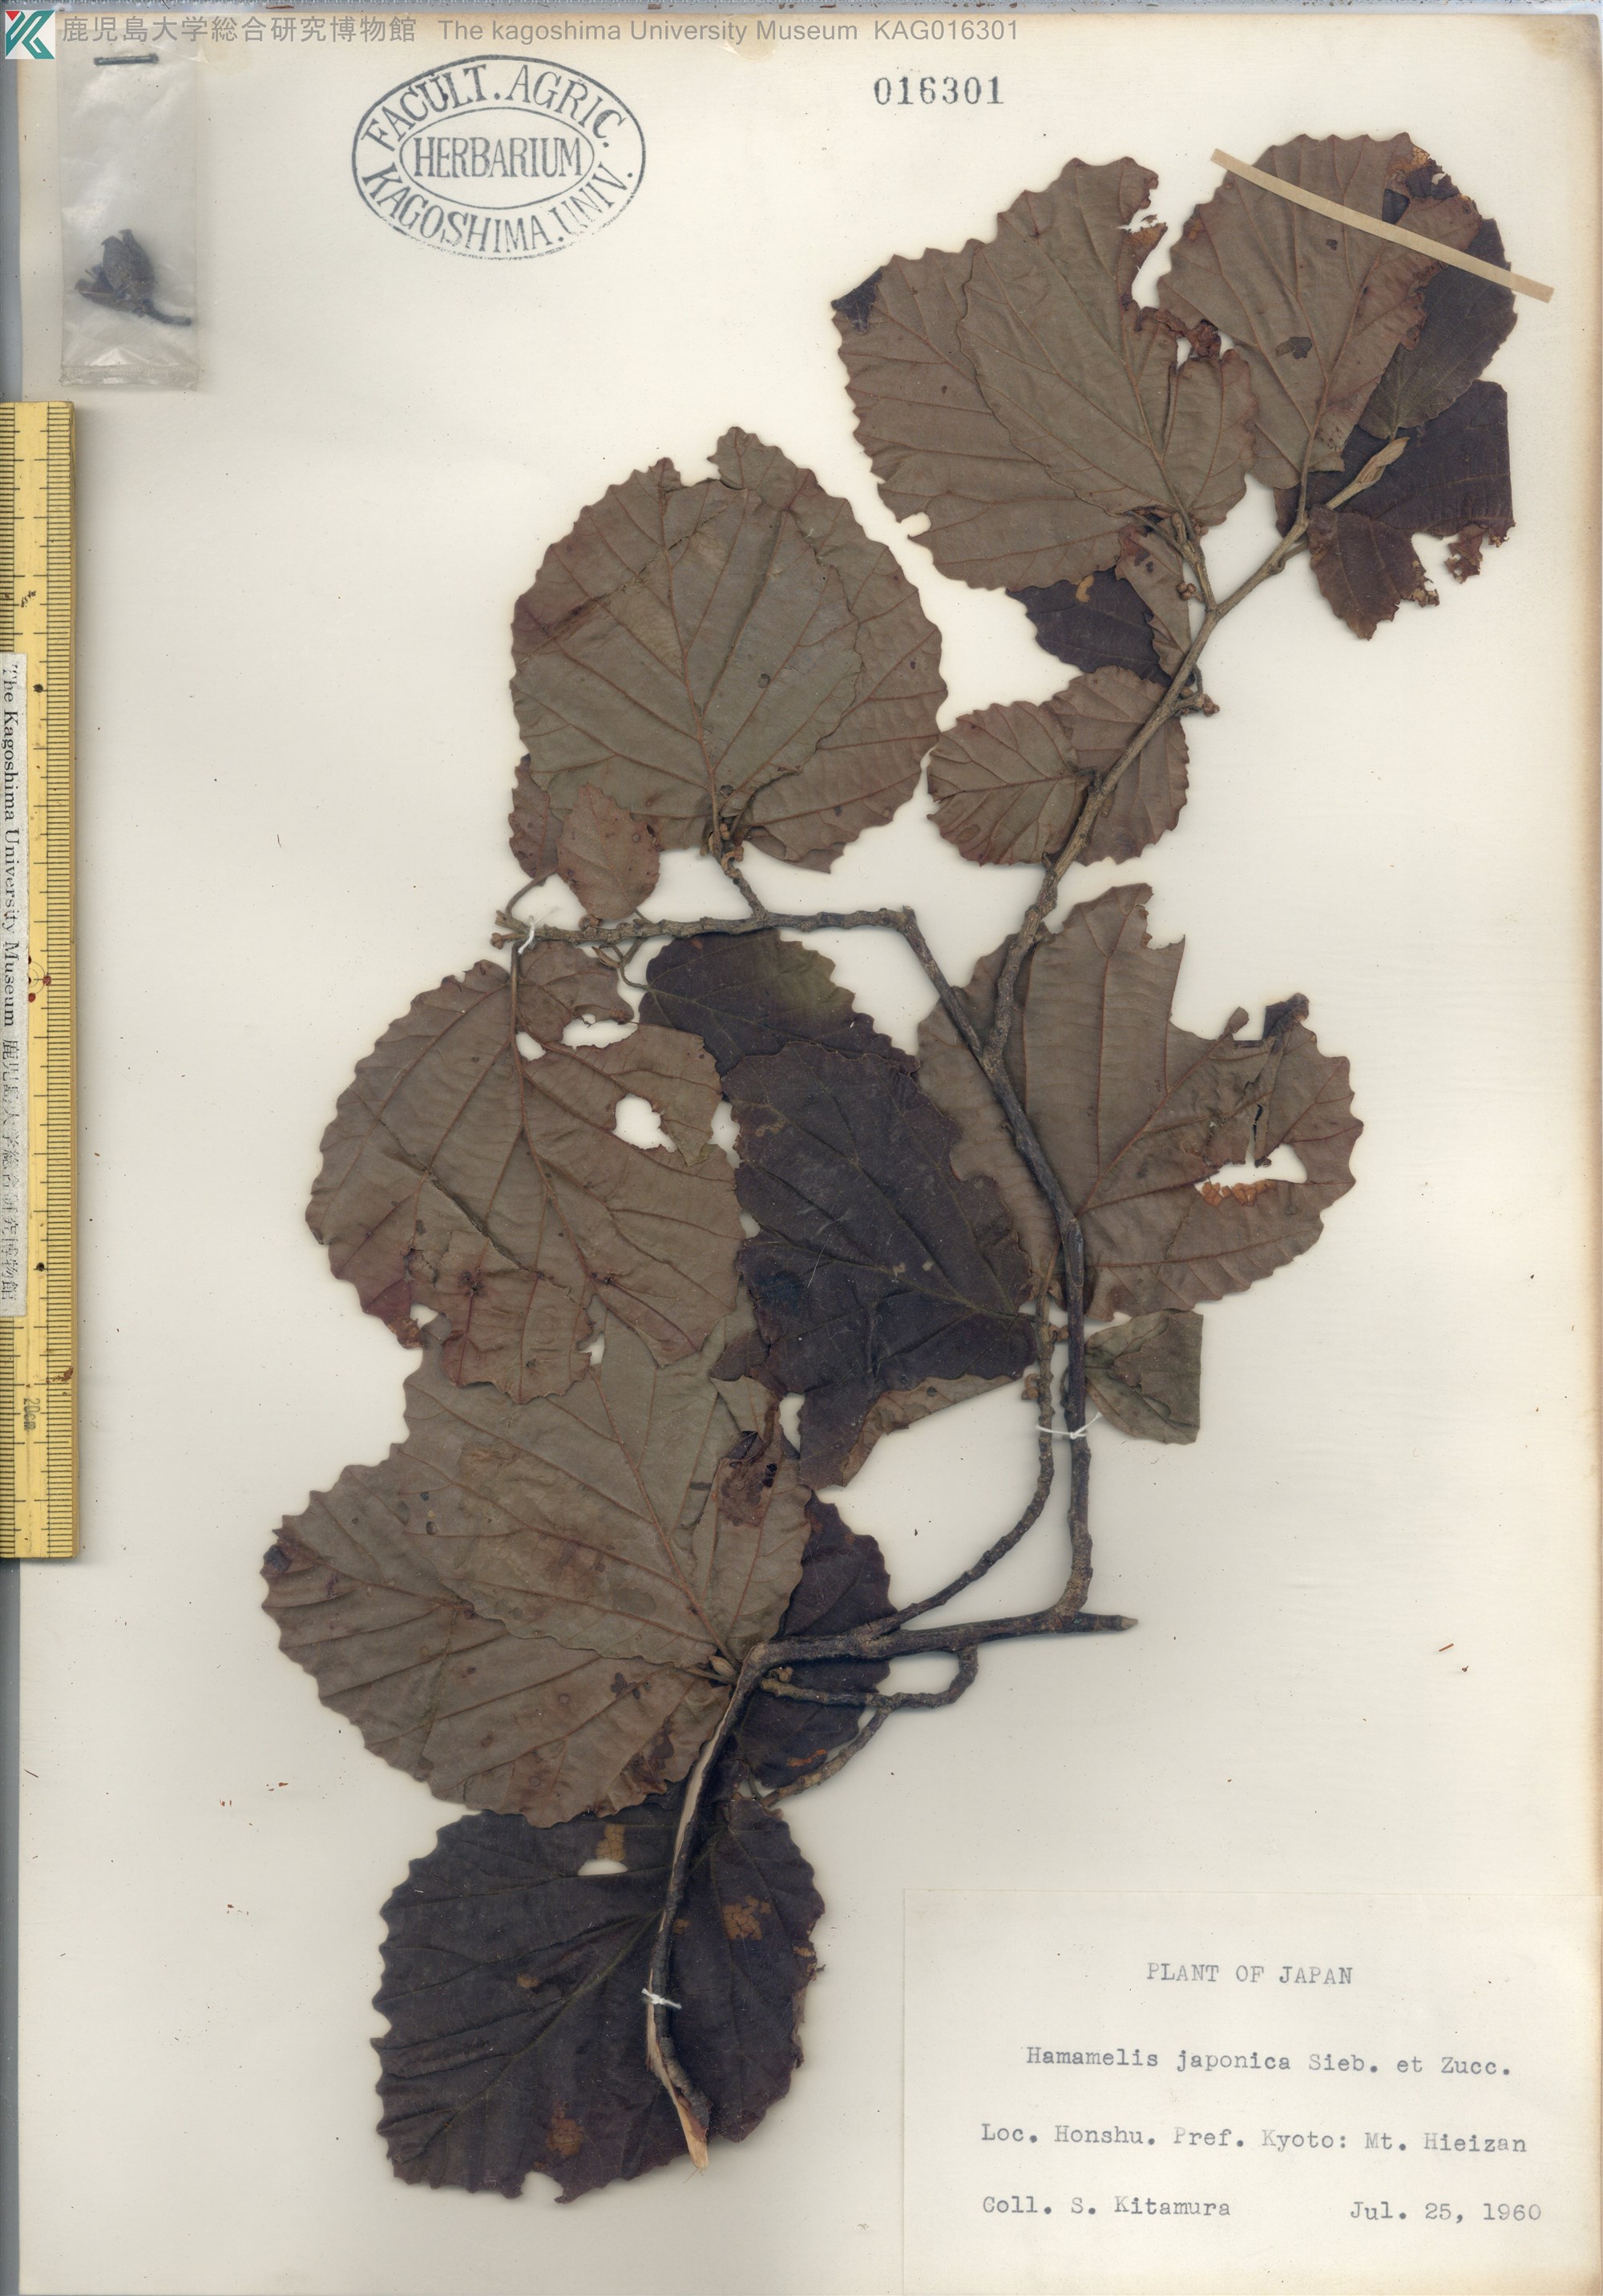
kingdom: Plantae
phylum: Tracheophyta
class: Magnoliopsida
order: Saxifragales
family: Hamamelidaceae
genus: Hamamelis
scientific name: Hamamelis japonica
